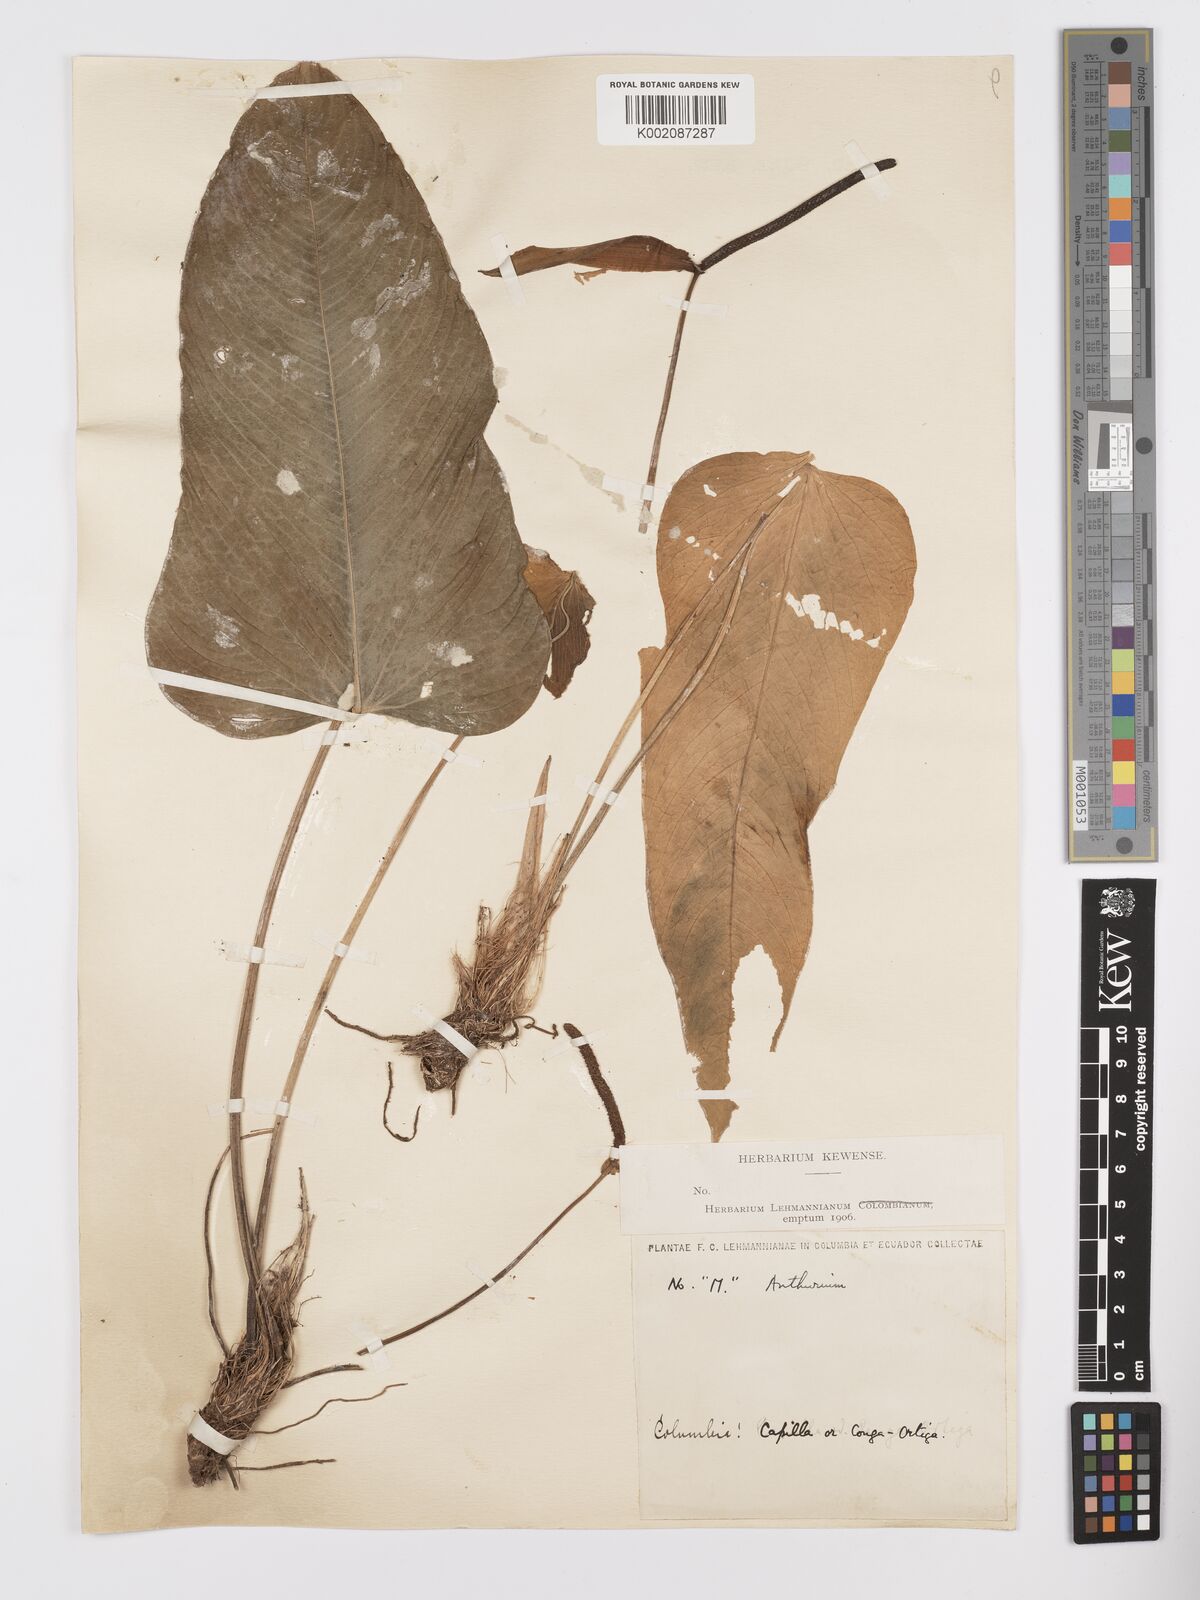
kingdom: Plantae
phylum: Tracheophyta
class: Liliopsida
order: Alismatales
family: Araceae
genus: Anthurium
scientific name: Anthurium
